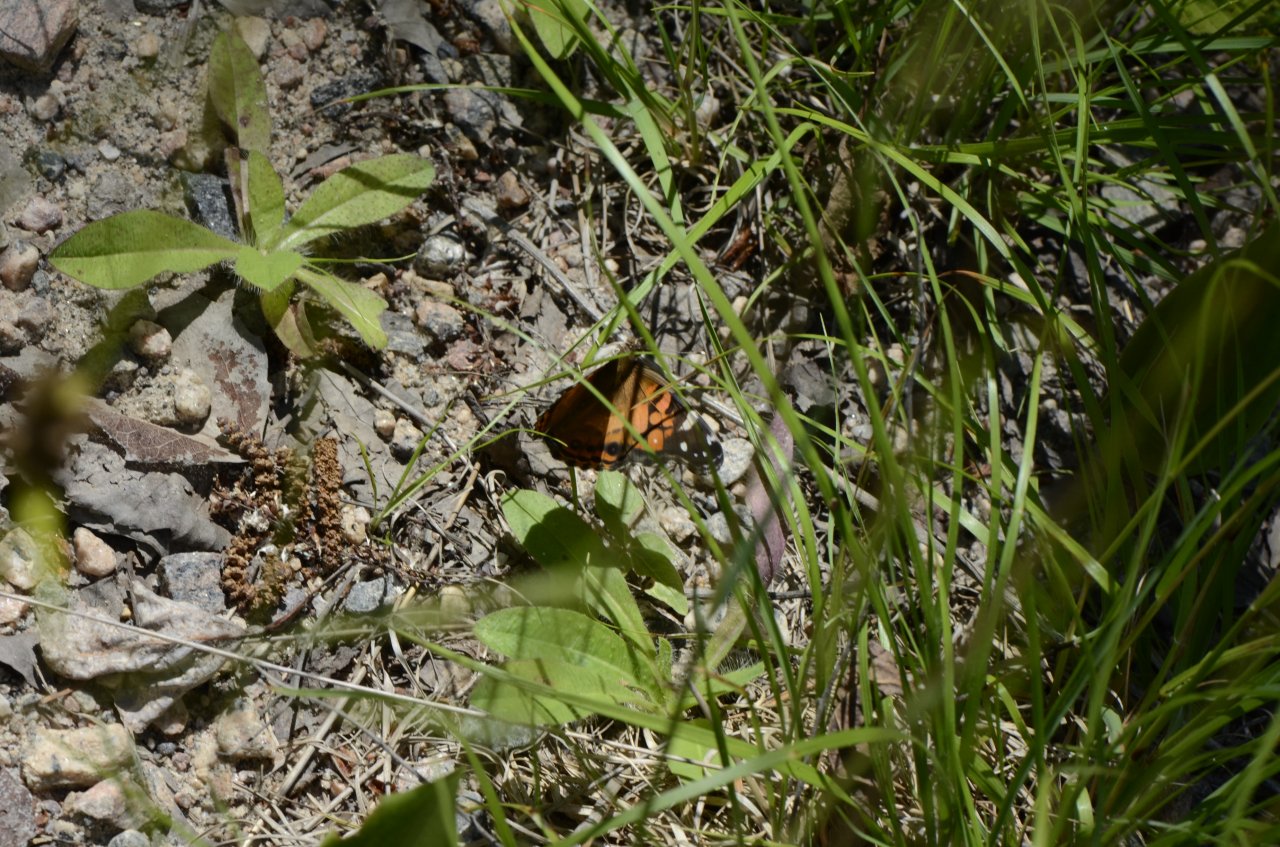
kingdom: Animalia
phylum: Arthropoda
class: Insecta
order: Lepidoptera
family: Nymphalidae
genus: Vanessa
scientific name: Vanessa virginiensis
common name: American Lady
